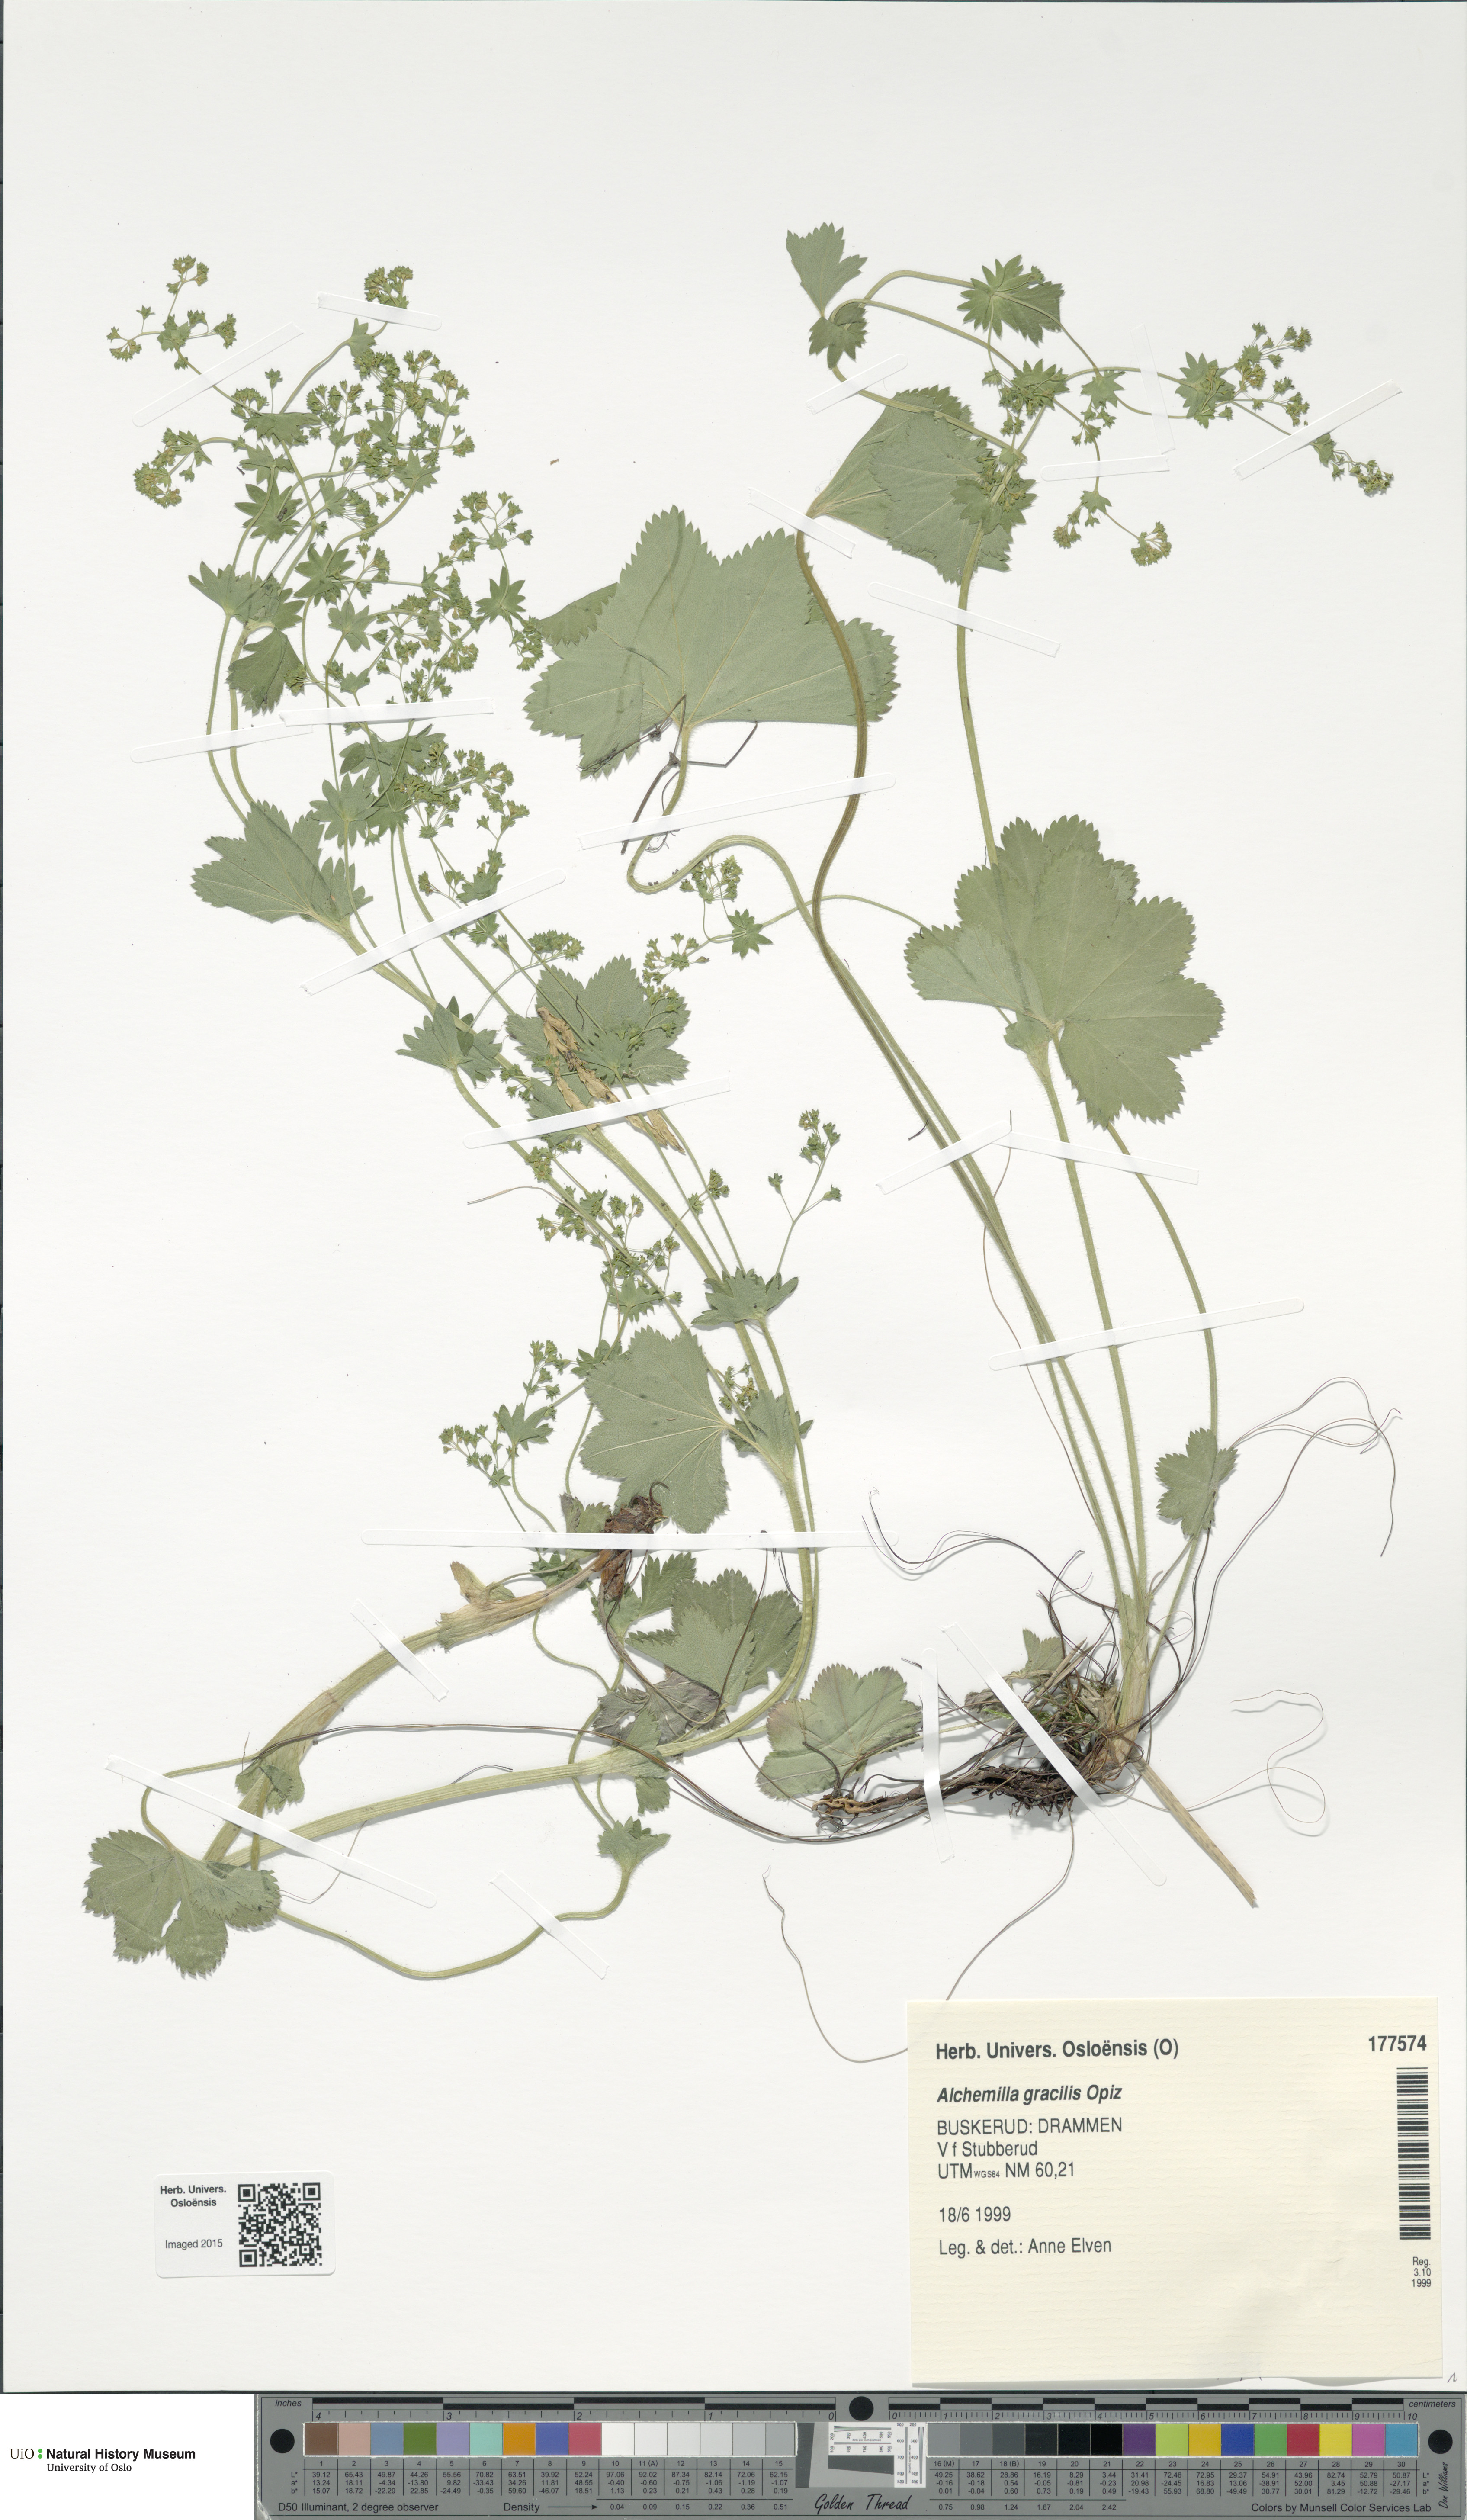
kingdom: Plantae
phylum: Tracheophyta
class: Magnoliopsida
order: Rosales
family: Rosaceae
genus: Alchemilla
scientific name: Alchemilla micans
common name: Gleaming lady's mantle
